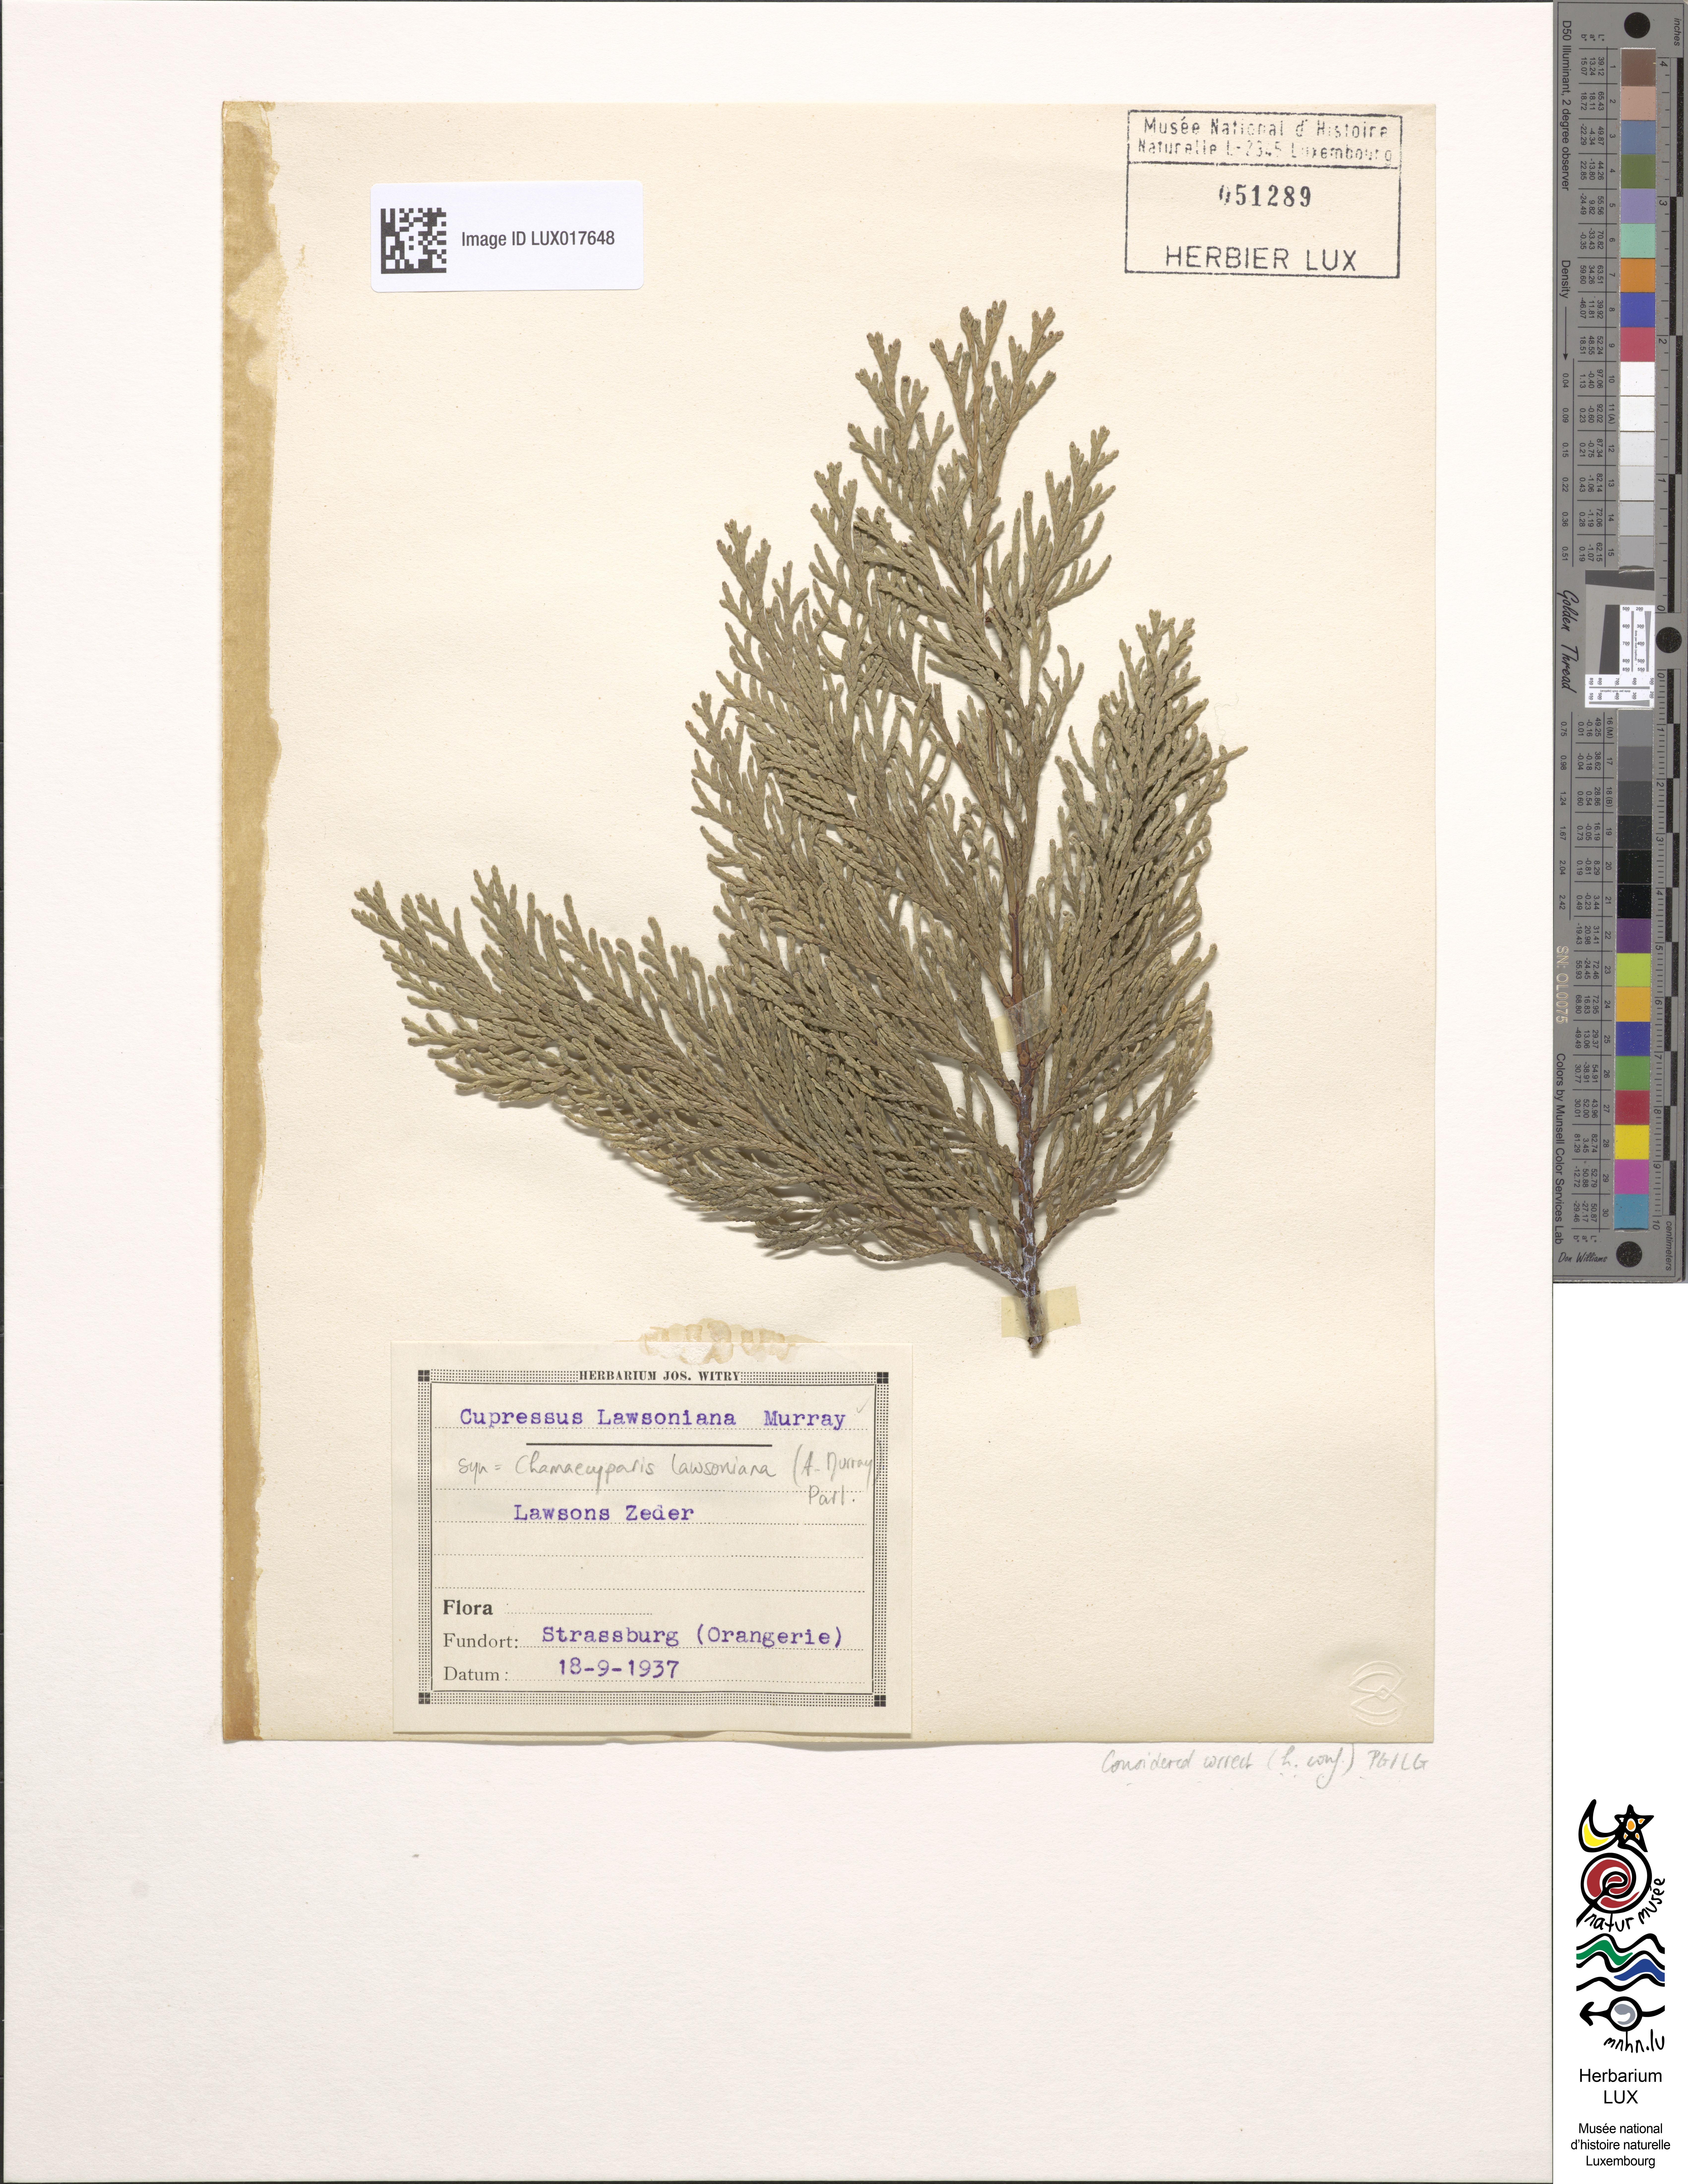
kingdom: Plantae
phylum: Tracheophyta
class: Pinopsida
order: Pinales
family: Cupressaceae
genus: Chamaecyparis
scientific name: Chamaecyparis lawsoniana
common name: Lawson's cypress
